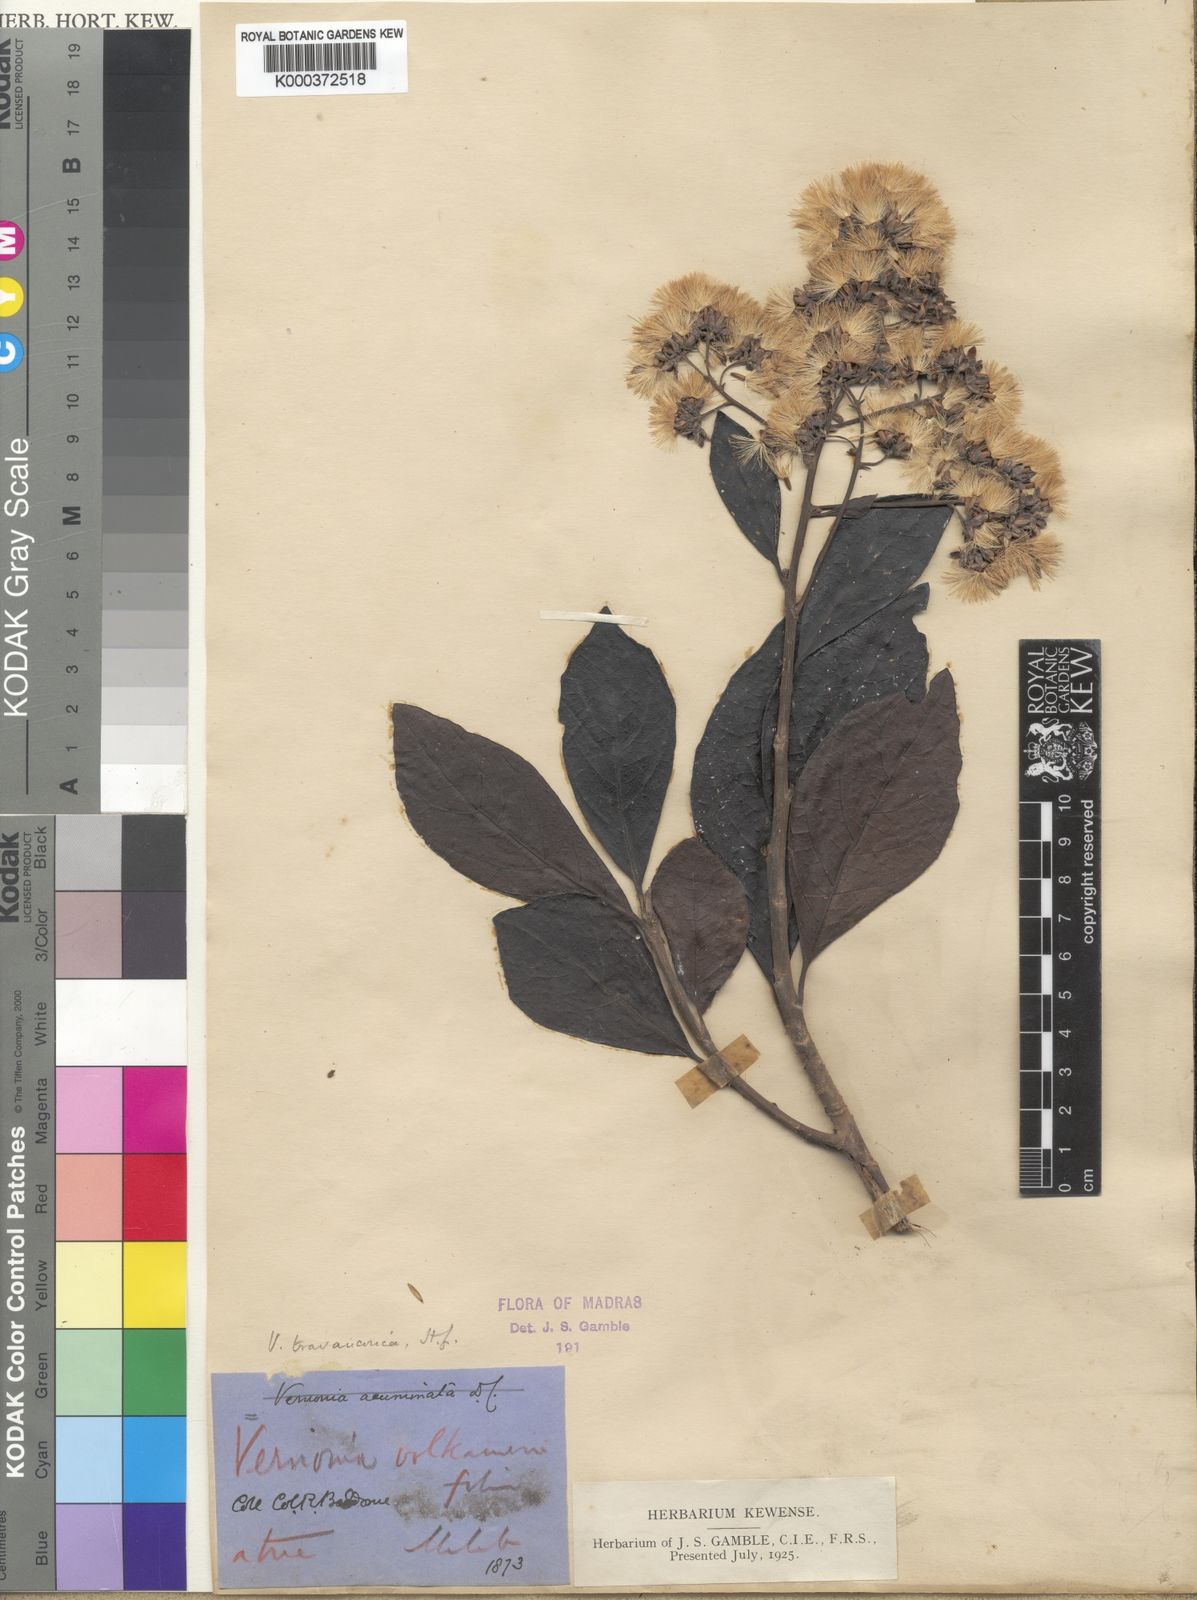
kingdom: Plantae
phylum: Tracheophyta
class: Magnoliopsida
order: Asterales
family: Asteraceae
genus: Monosis
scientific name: Monosis travancorica
